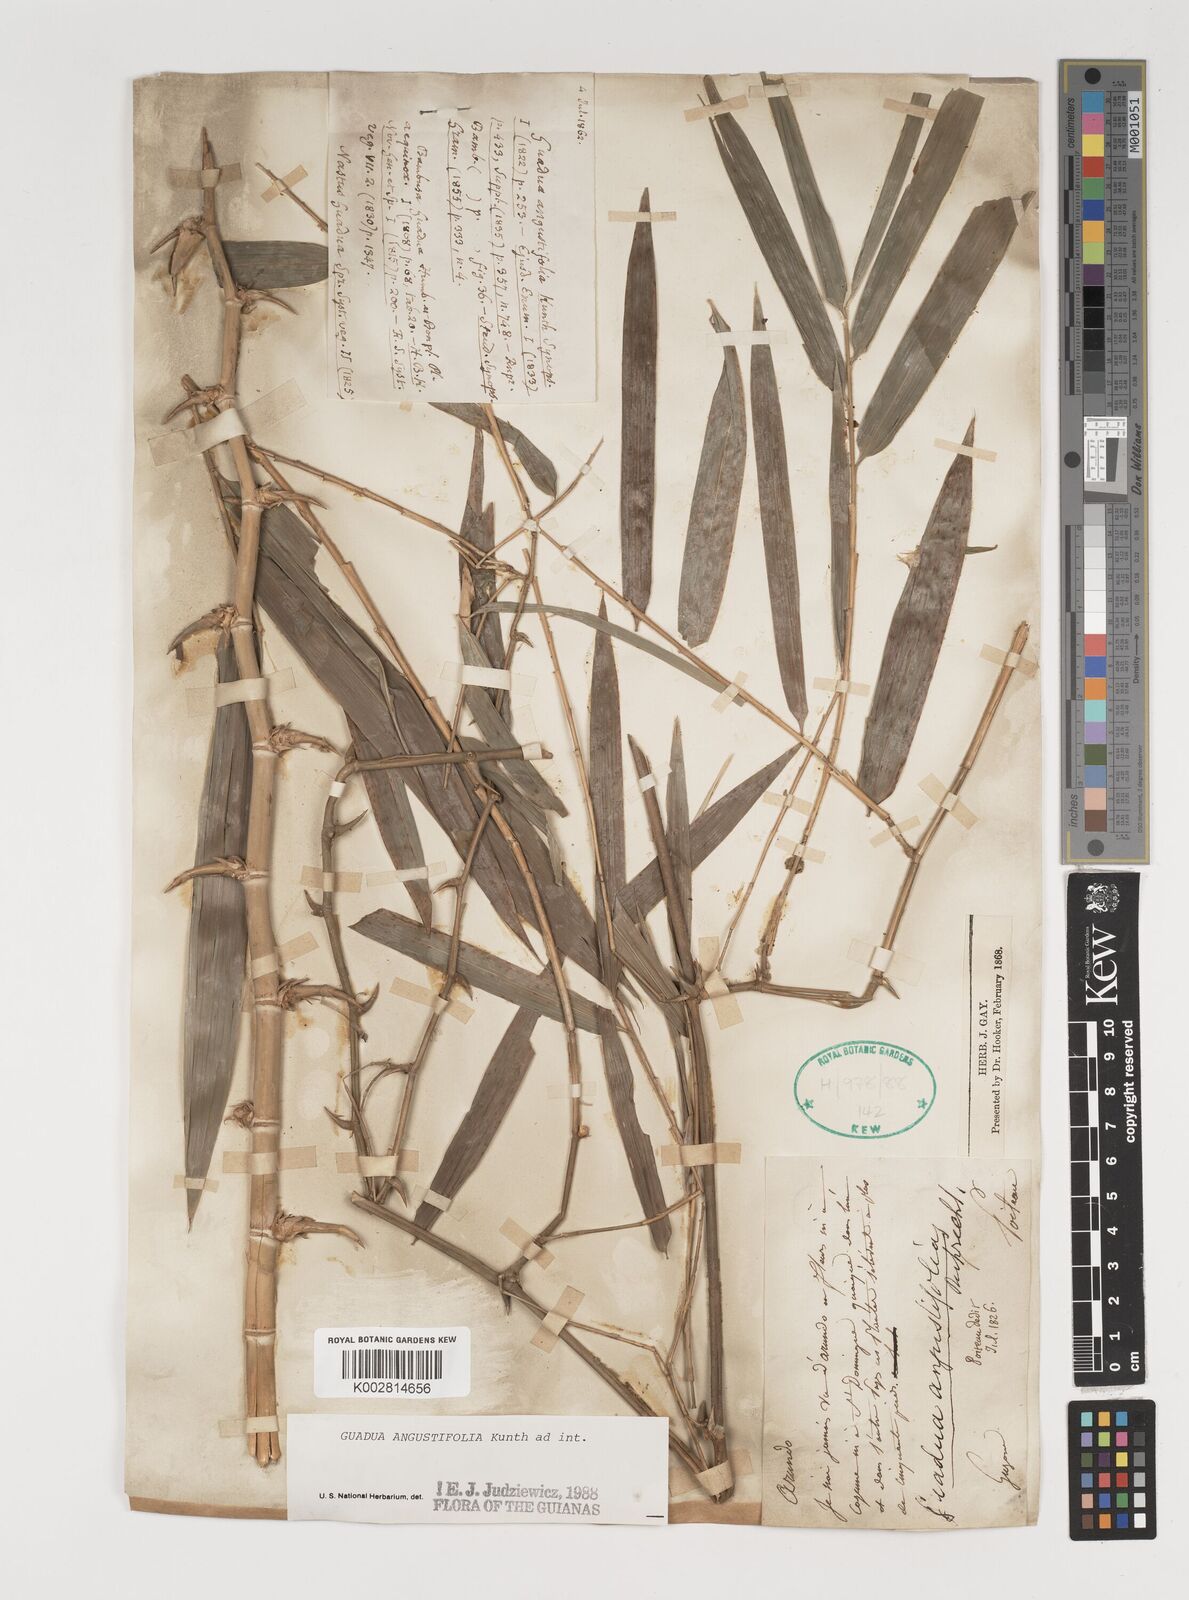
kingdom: Plantae
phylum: Tracheophyta
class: Liliopsida
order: Poales
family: Poaceae
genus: Guadua
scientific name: Guadua angustifolia
